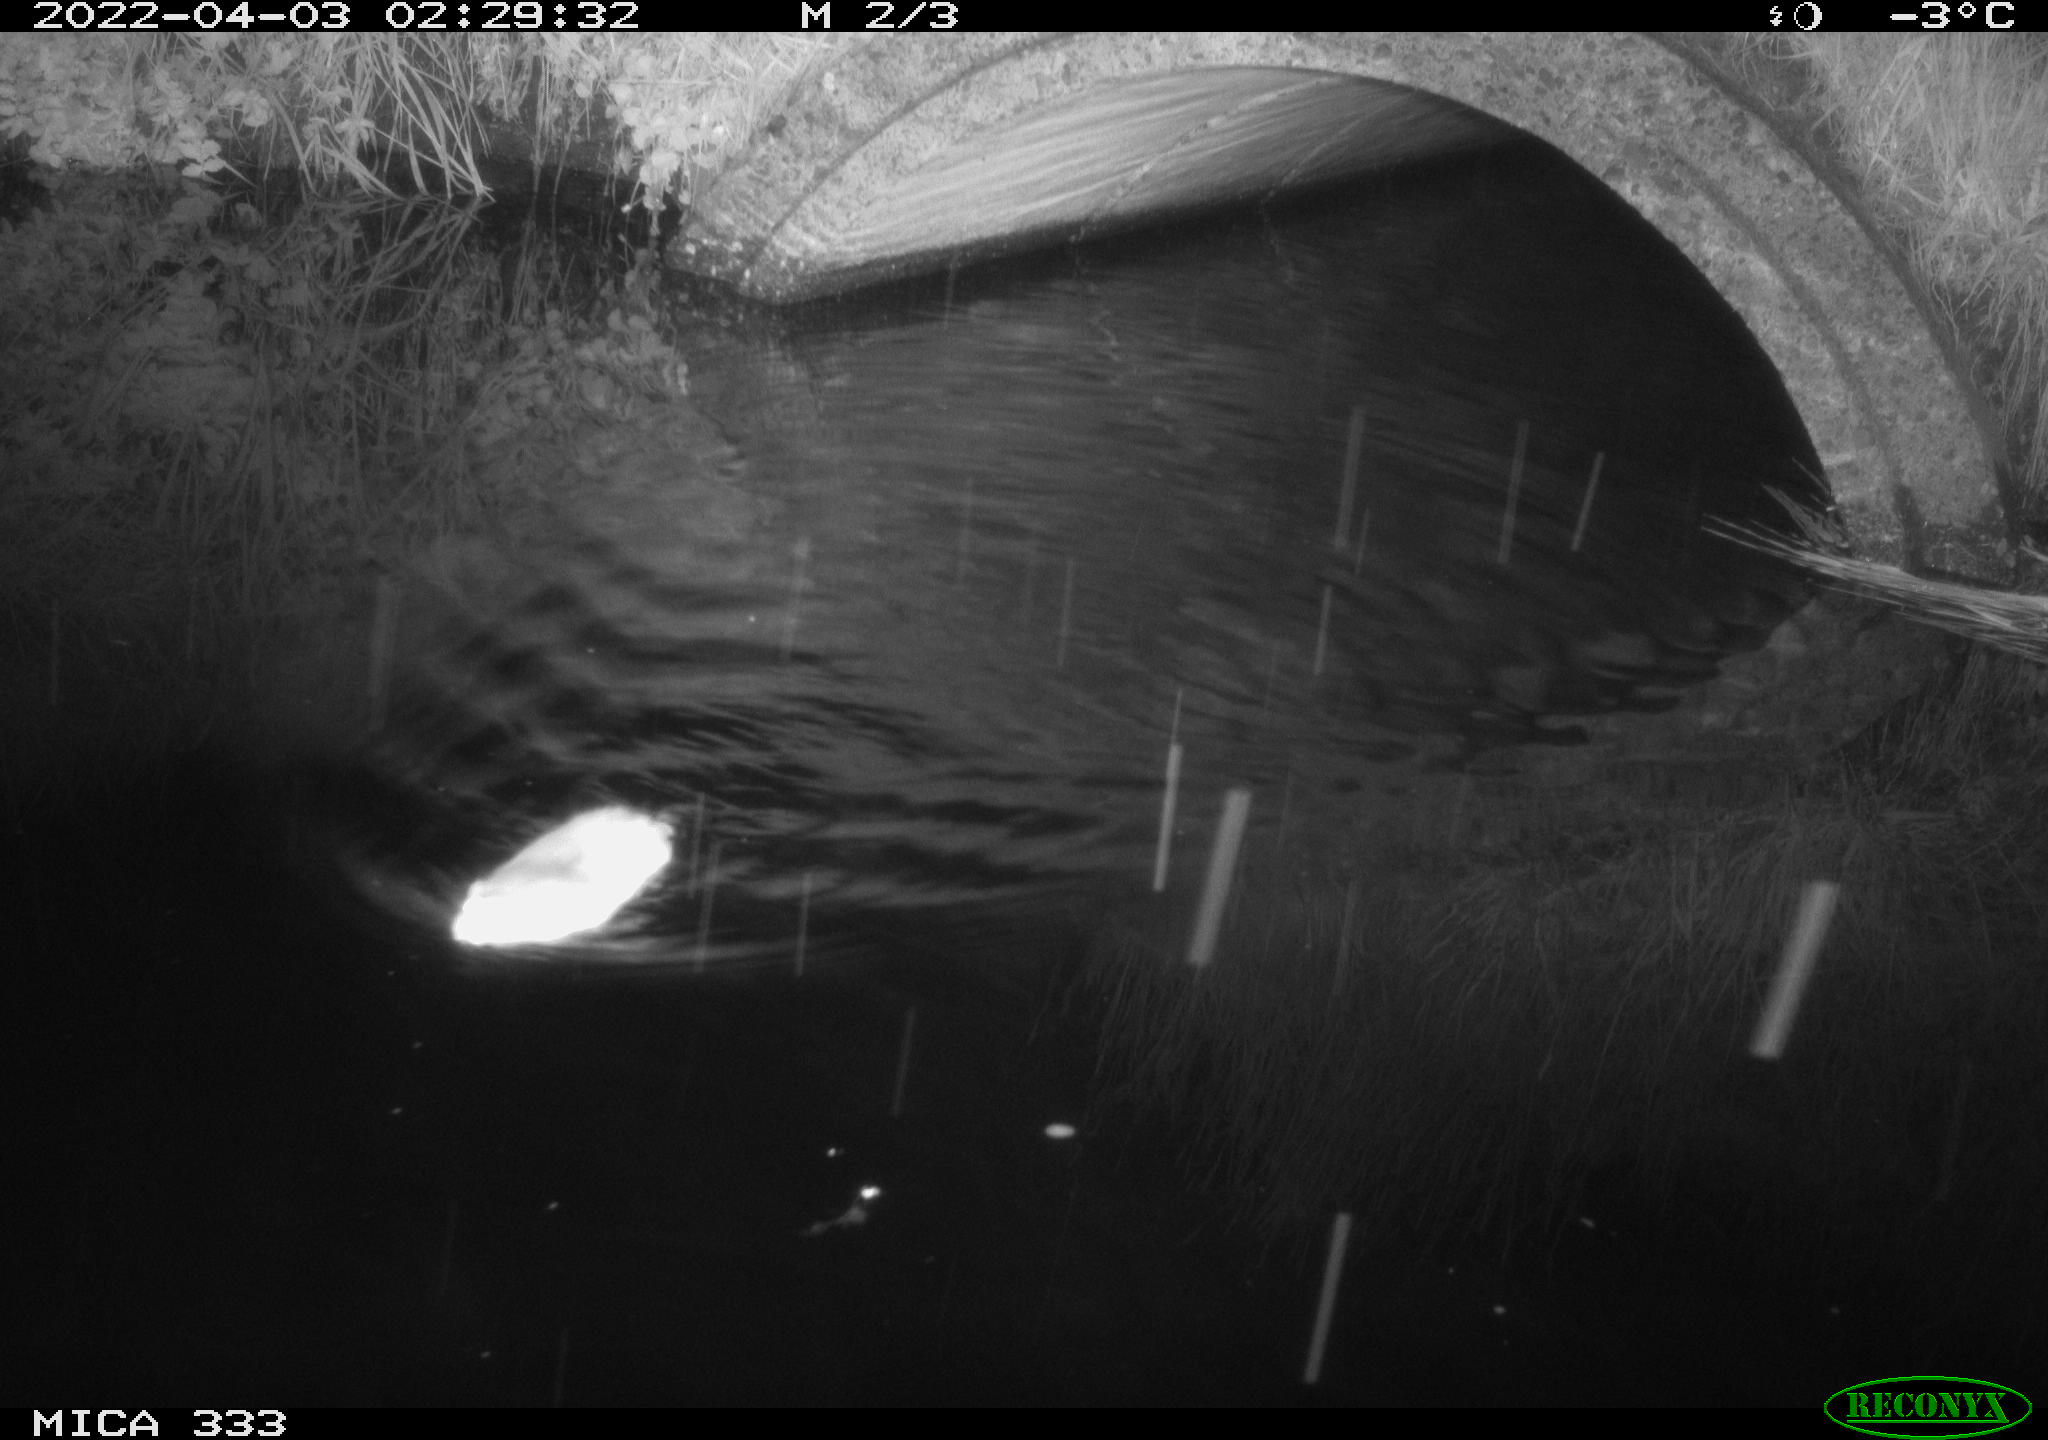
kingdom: Animalia
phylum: Chordata
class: Mammalia
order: Rodentia
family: Muridae
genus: Rattus
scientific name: Rattus norvegicus
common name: Brown rat
